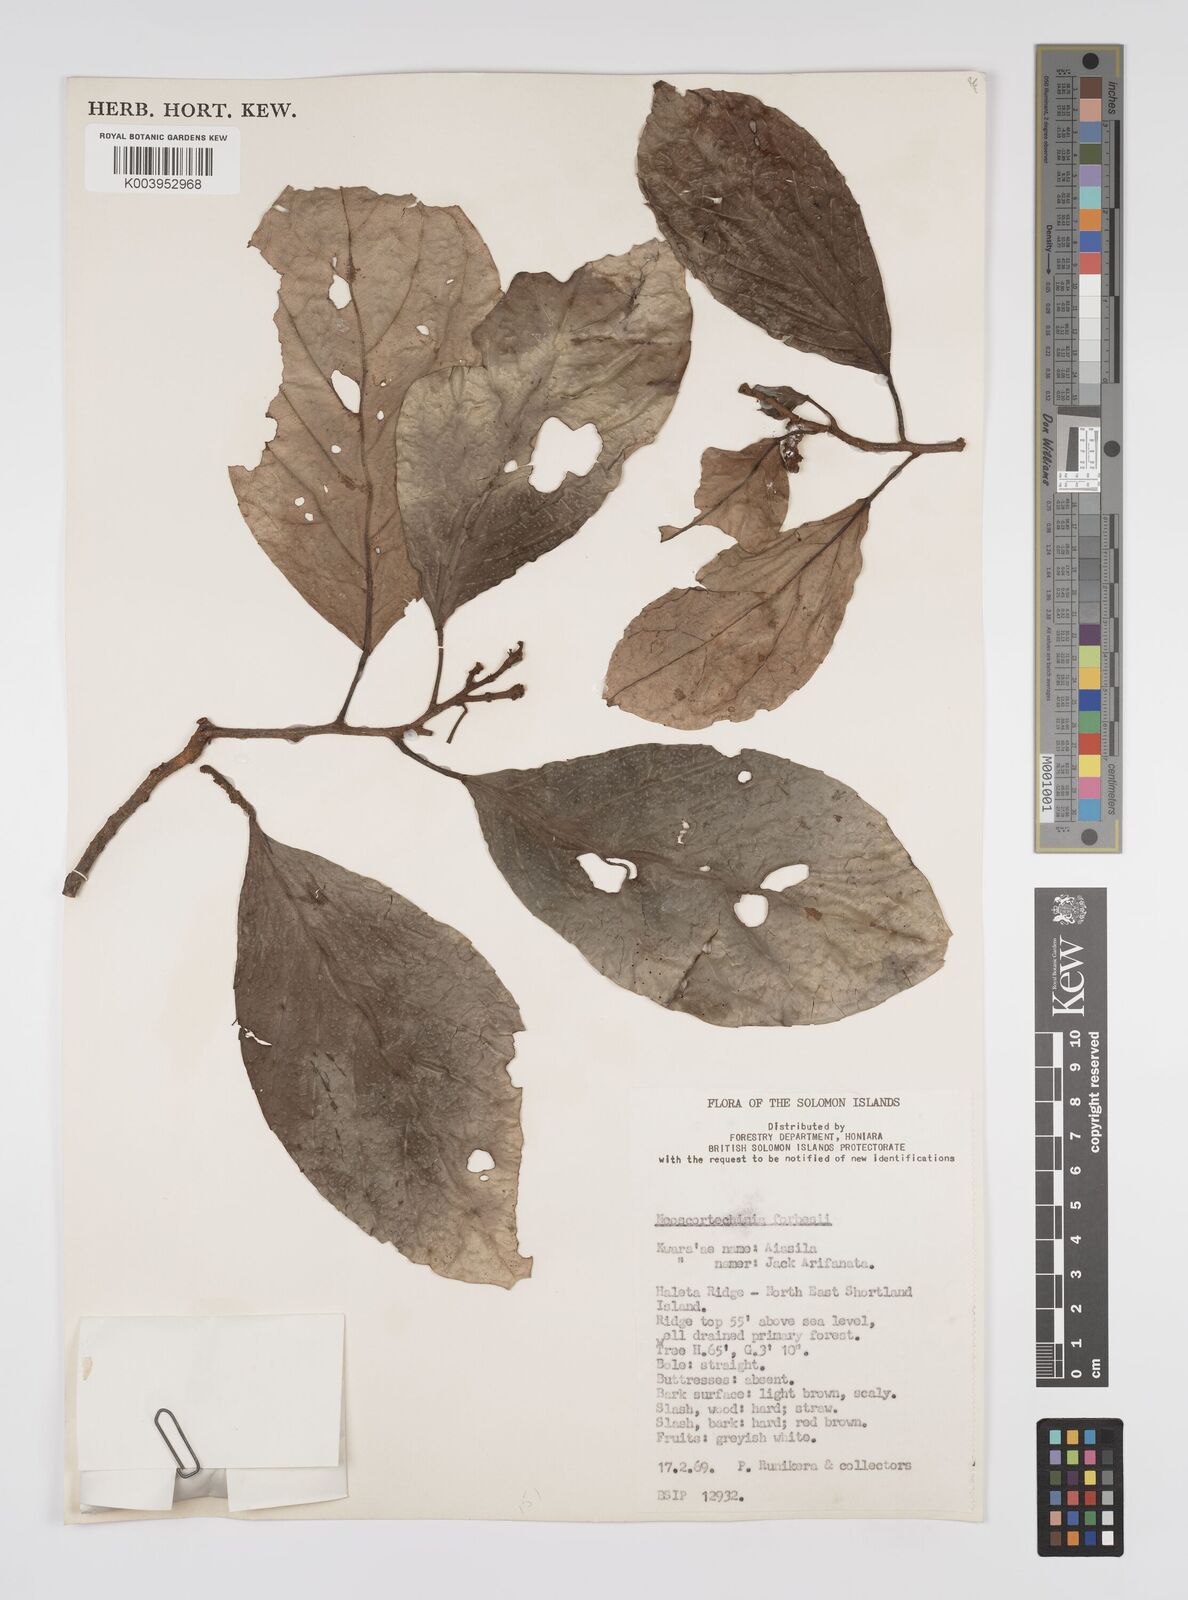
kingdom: Plantae
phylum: Tracheophyta
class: Magnoliopsida
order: Malpighiales
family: Euphorbiaceae
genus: Neoscortechinia
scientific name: Neoscortechinia forbesii
